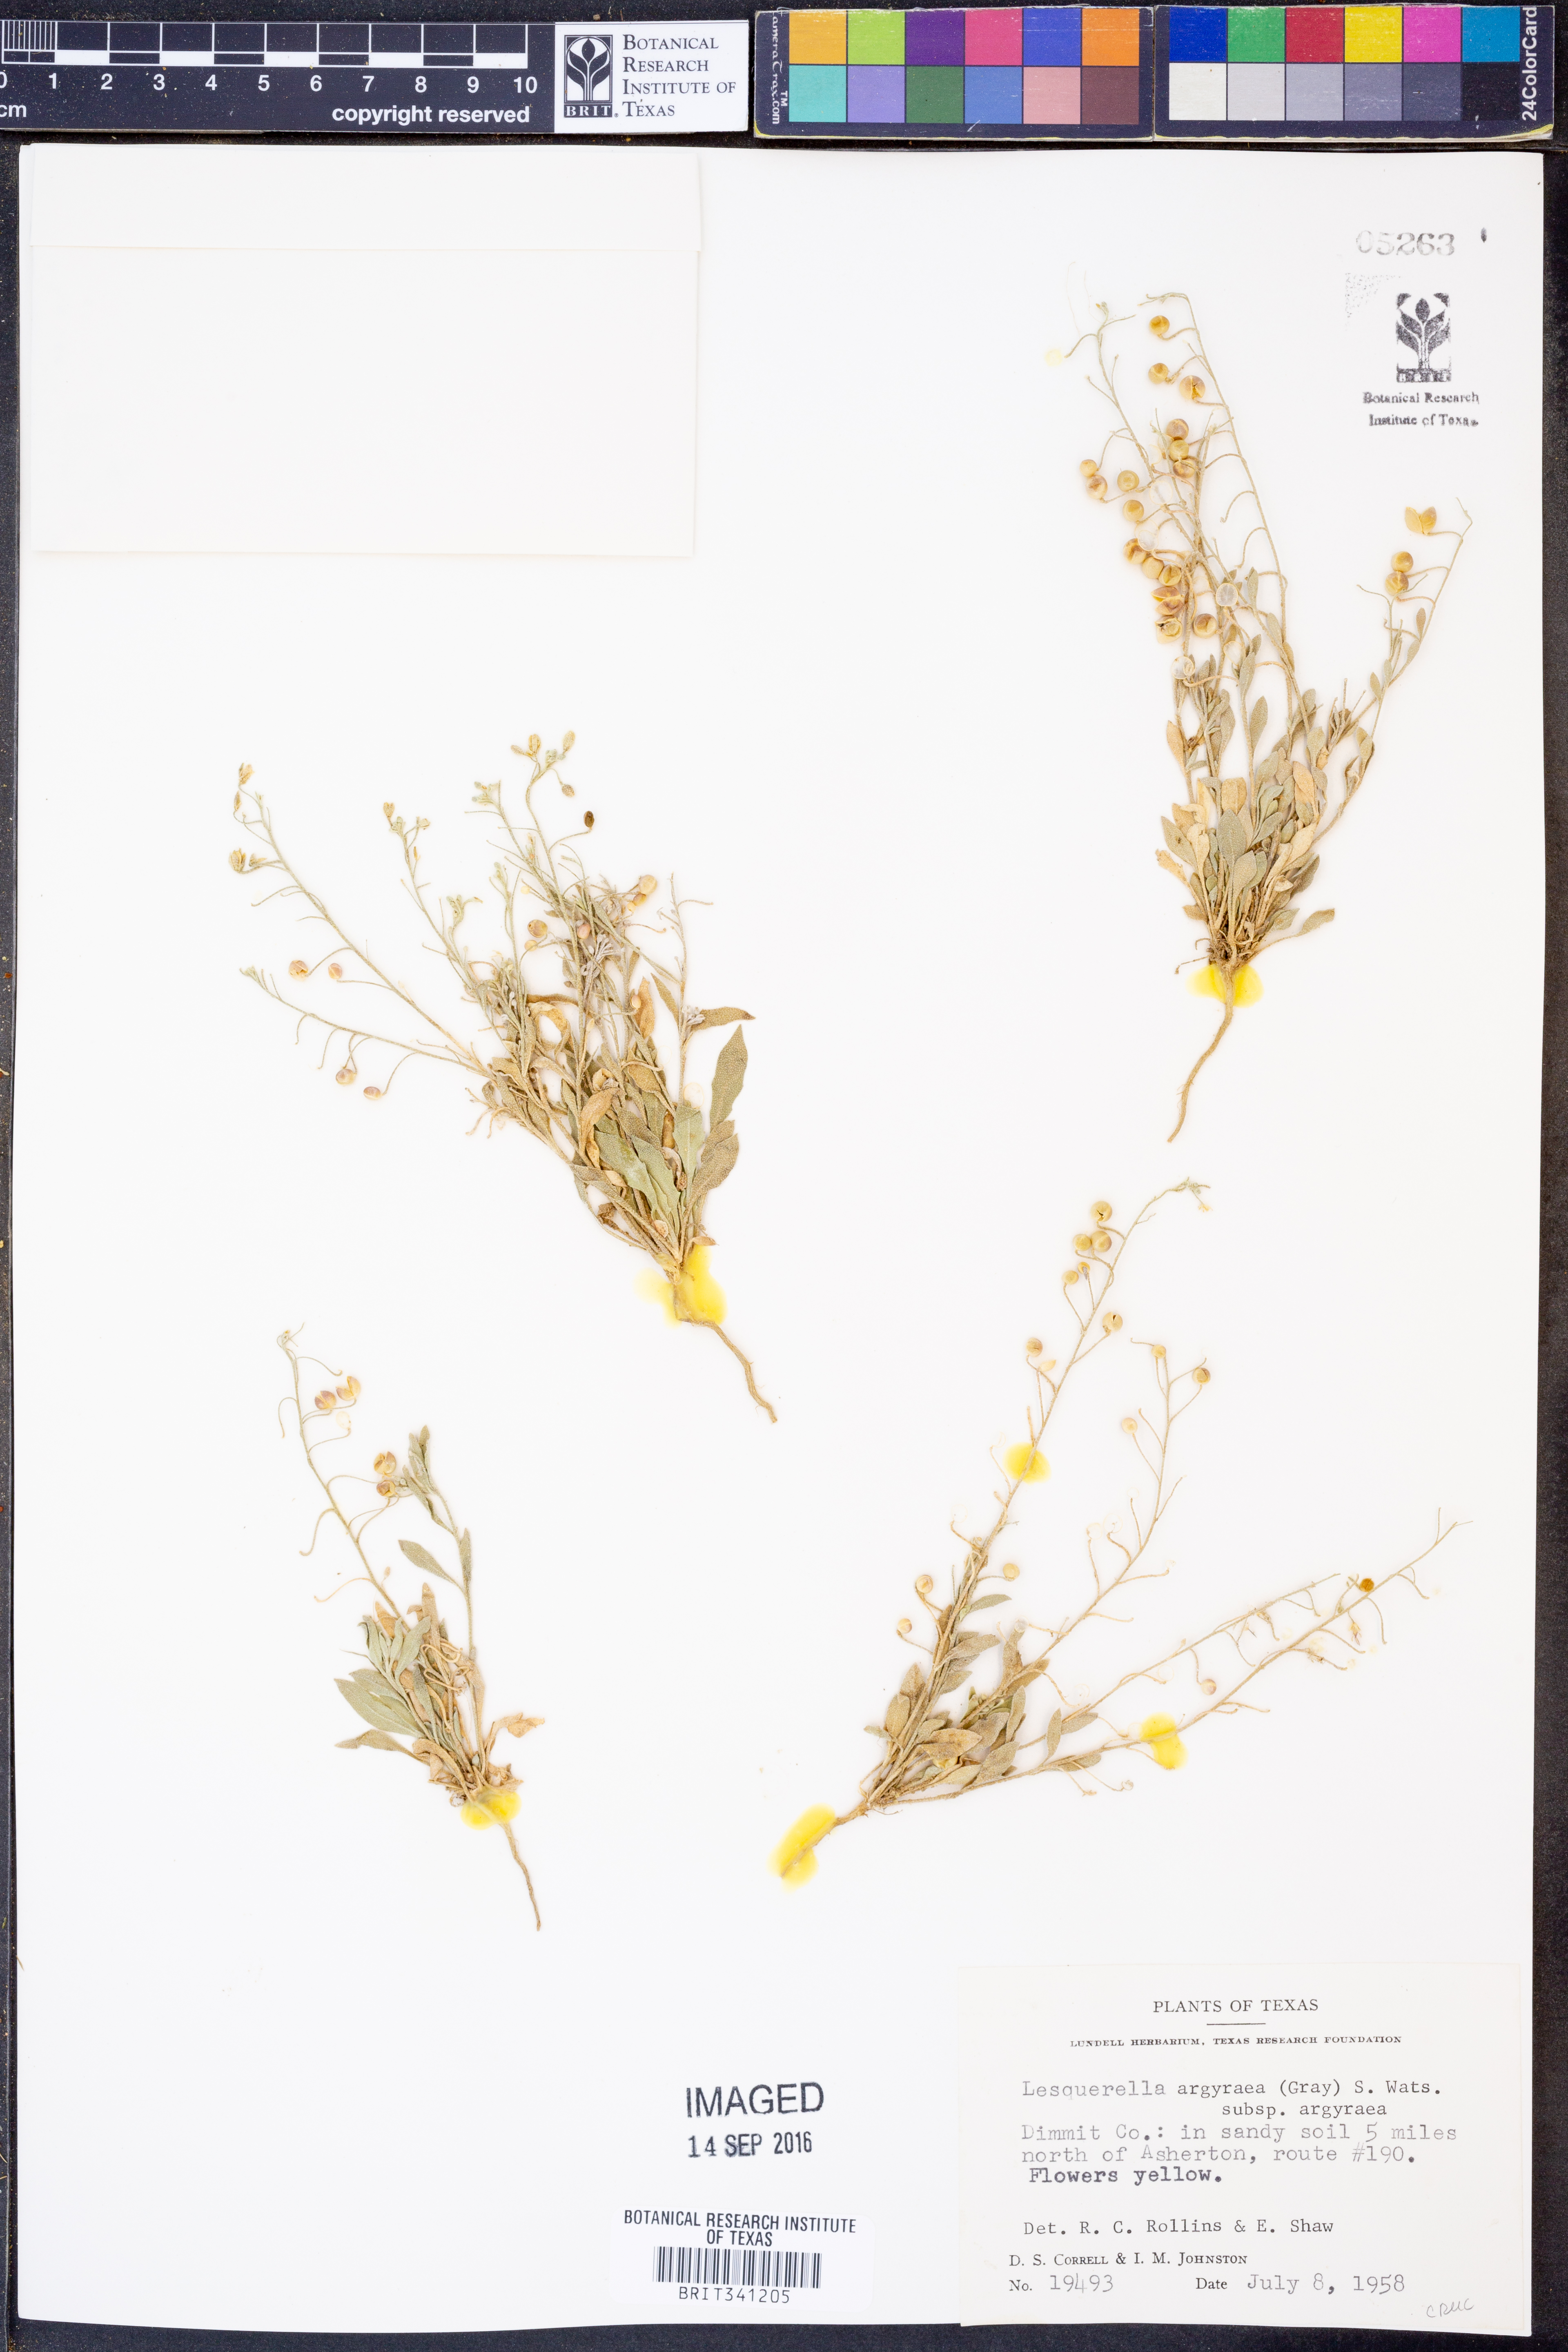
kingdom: Plantae
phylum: Tracheophyta
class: Magnoliopsida
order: Brassicales
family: Brassicaceae
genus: Physaria
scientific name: Physaria argyraea
